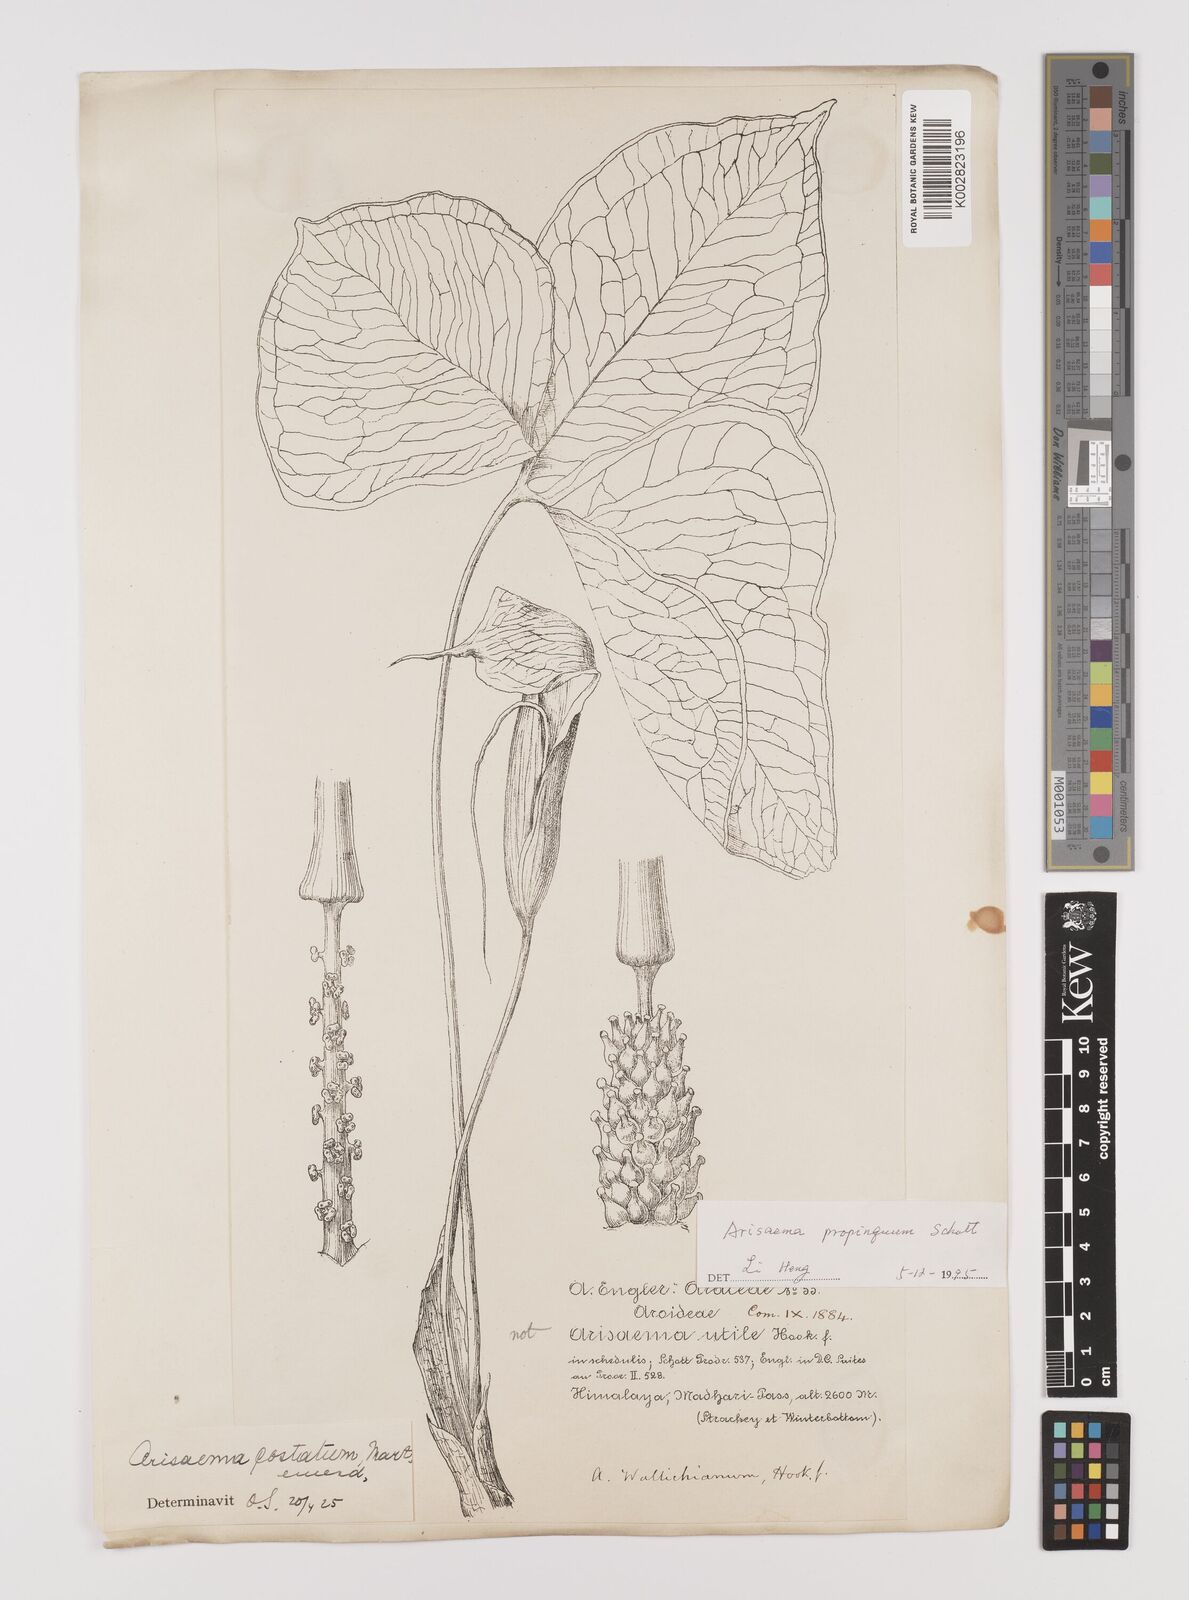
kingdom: Plantae
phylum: Tracheophyta
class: Liliopsida
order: Alismatales
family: Araceae
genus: Arisaema
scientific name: Arisaema propinquum
